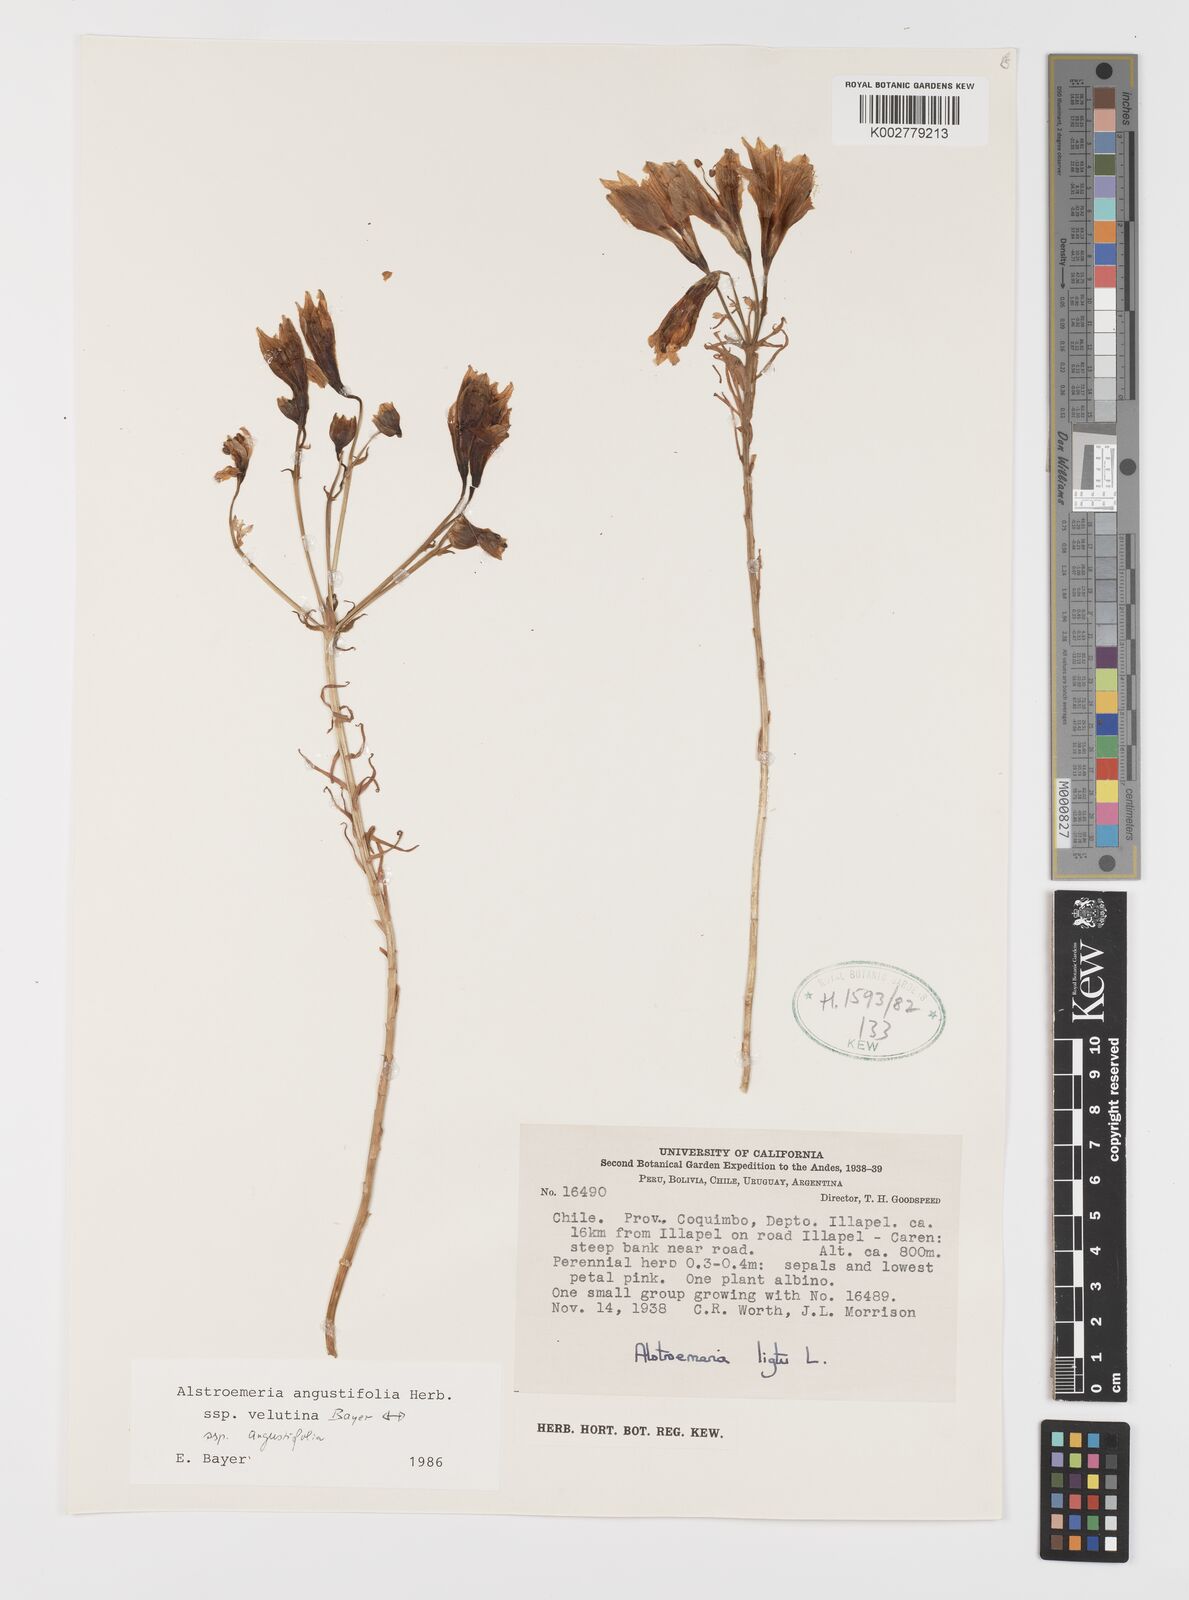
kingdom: Plantae
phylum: Tracheophyta
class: Liliopsida
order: Liliales
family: Alstroemeriaceae
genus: Alstroemeria
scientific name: Alstroemeria angustifolia
